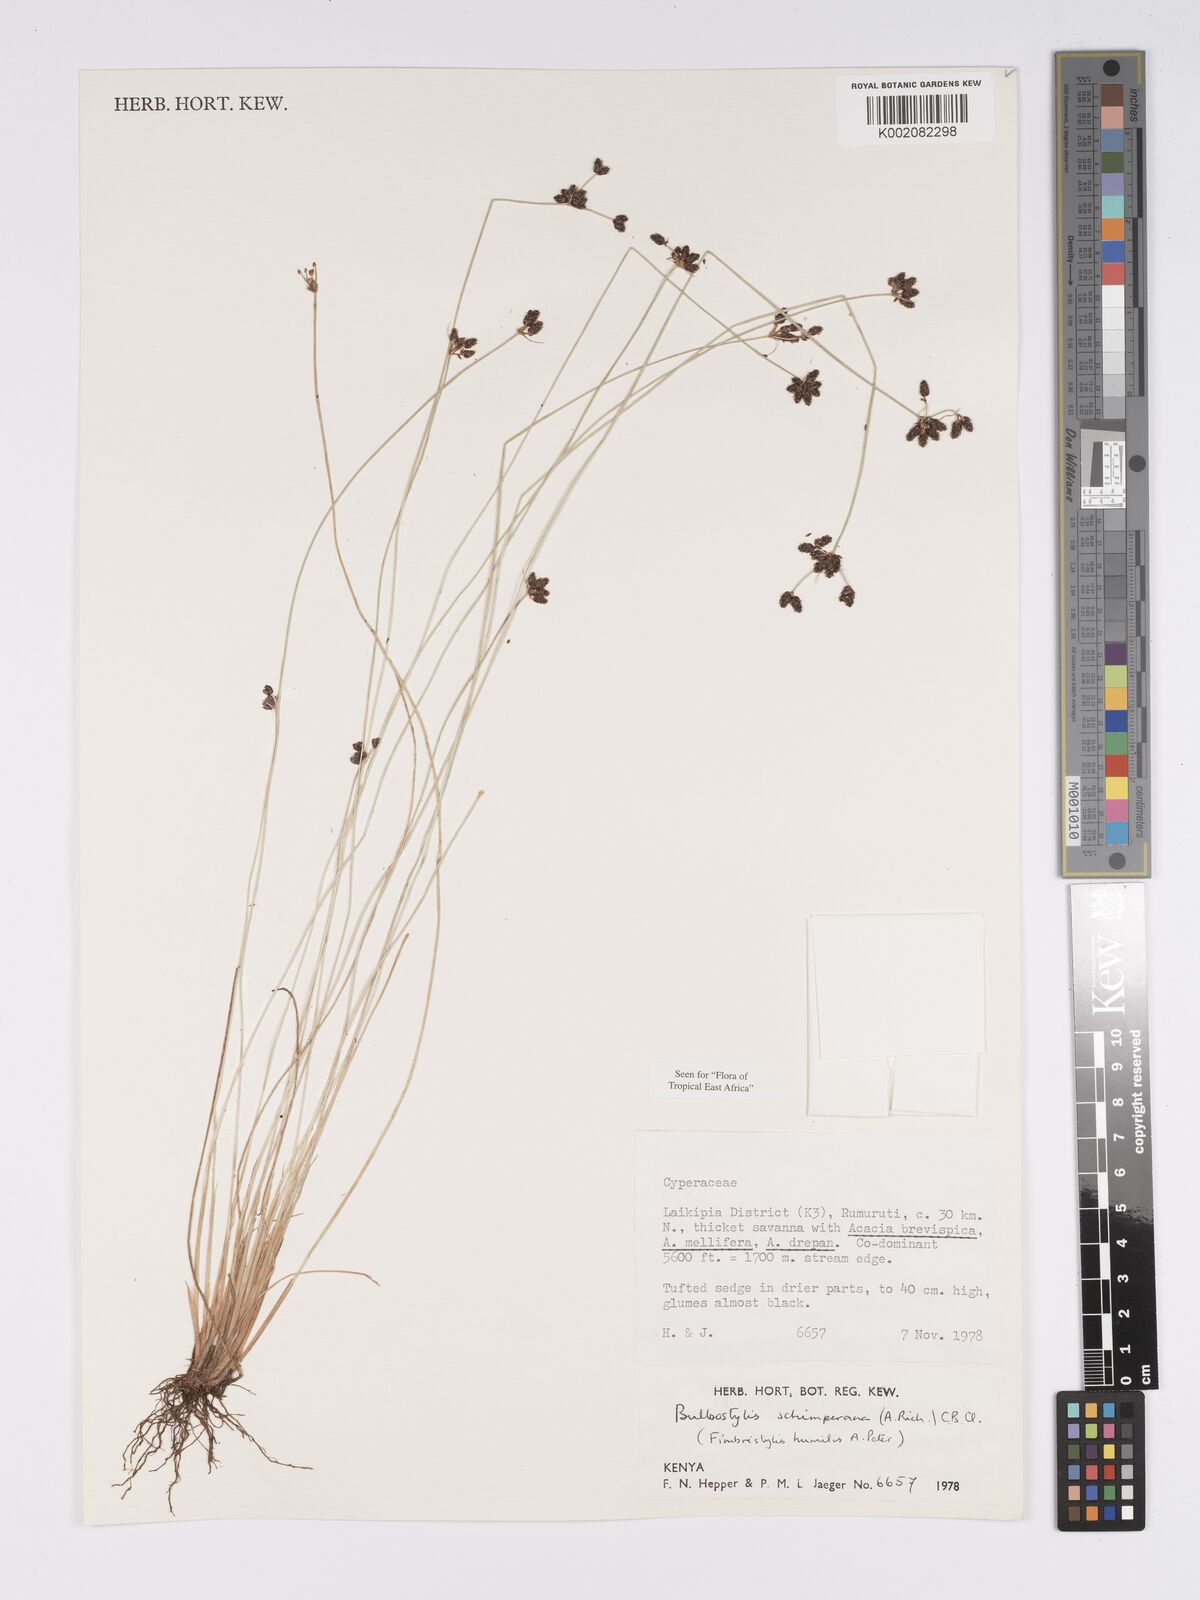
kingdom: Plantae
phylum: Tracheophyta
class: Liliopsida
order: Poales
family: Cyperaceae
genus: Bulbostylis
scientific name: Bulbostylis schimperiana
